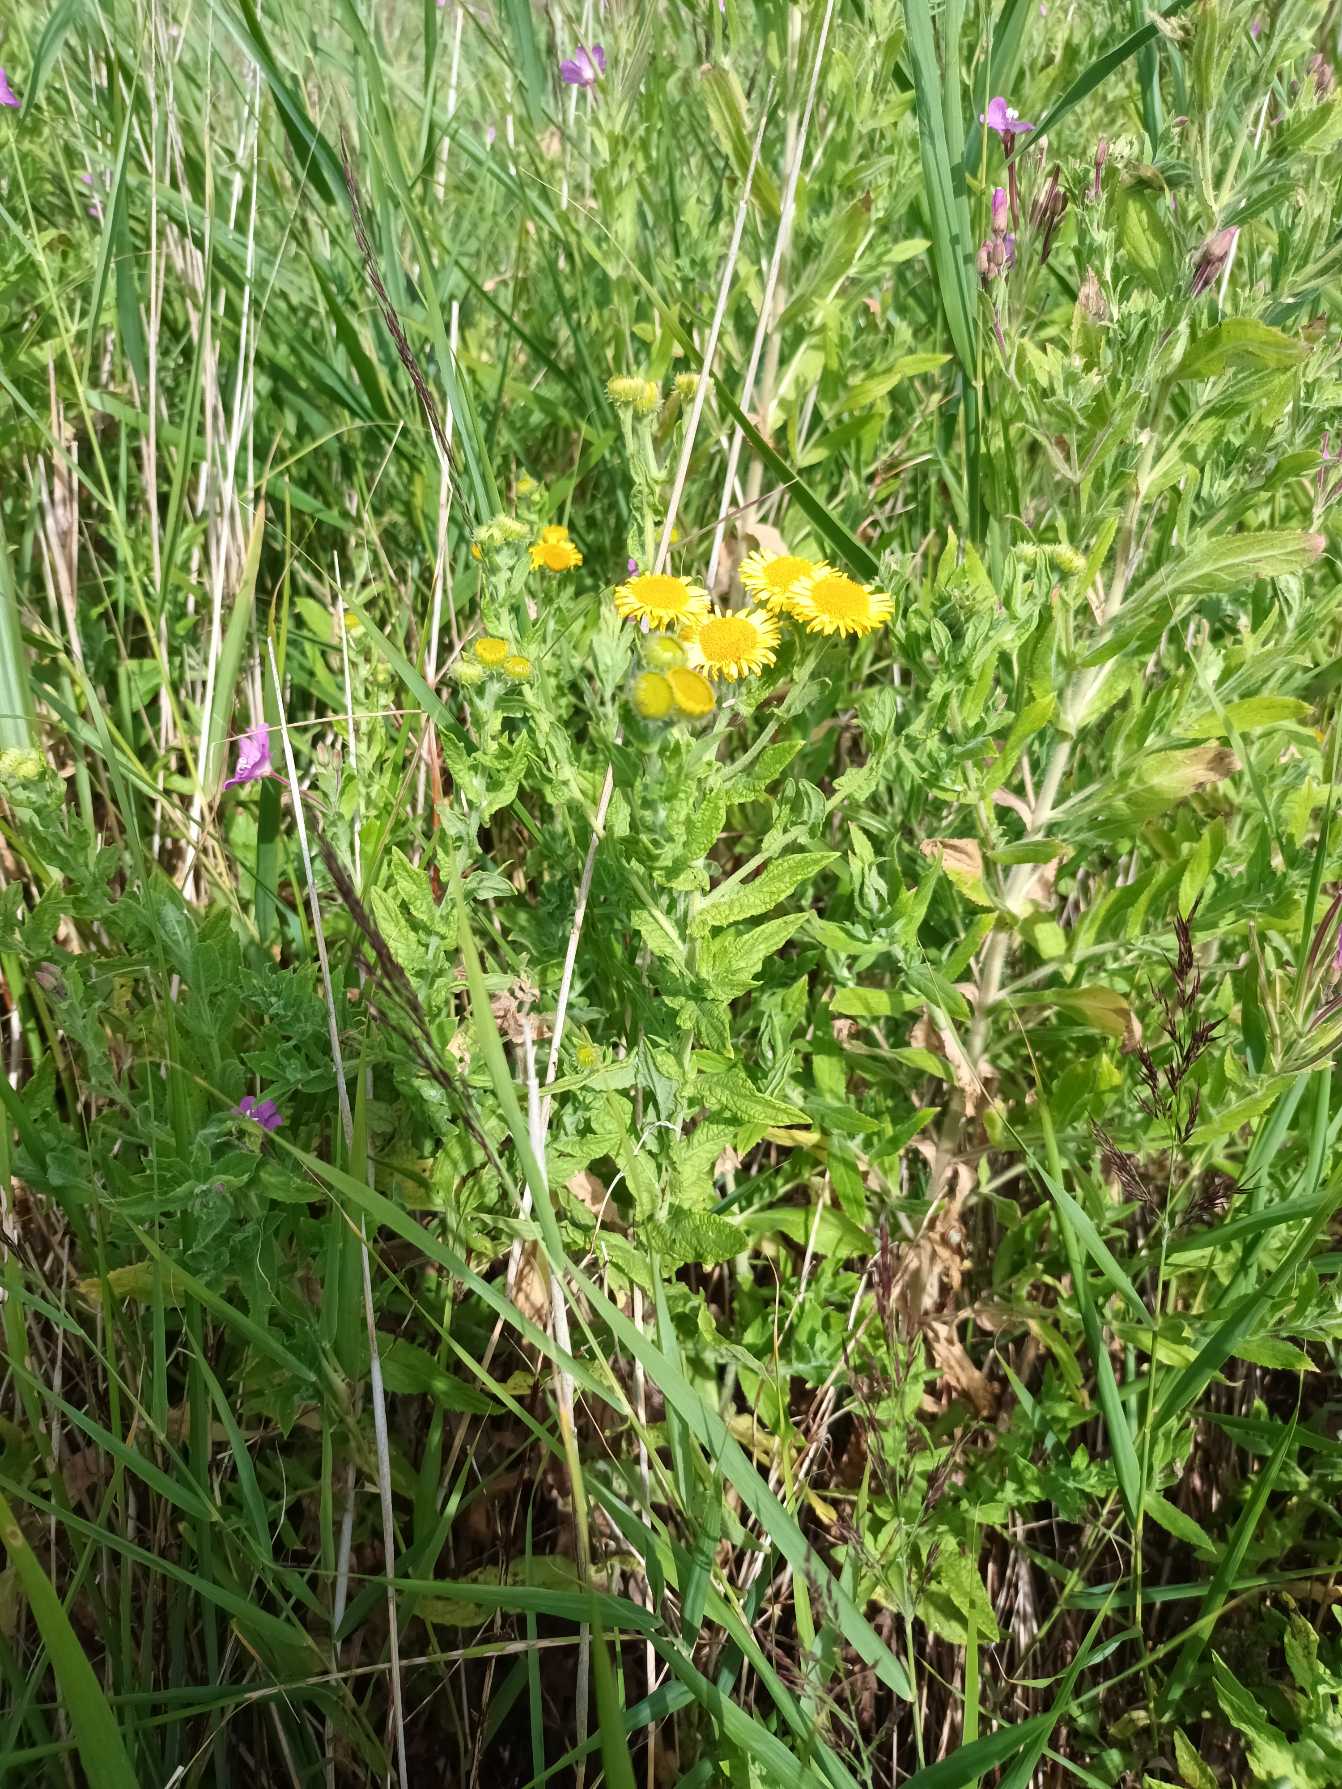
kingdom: Plantae
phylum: Tracheophyta
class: Magnoliopsida
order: Asterales
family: Asteraceae
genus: Pulicaria
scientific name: Pulicaria dysenterica
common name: Strand-loppeurt
